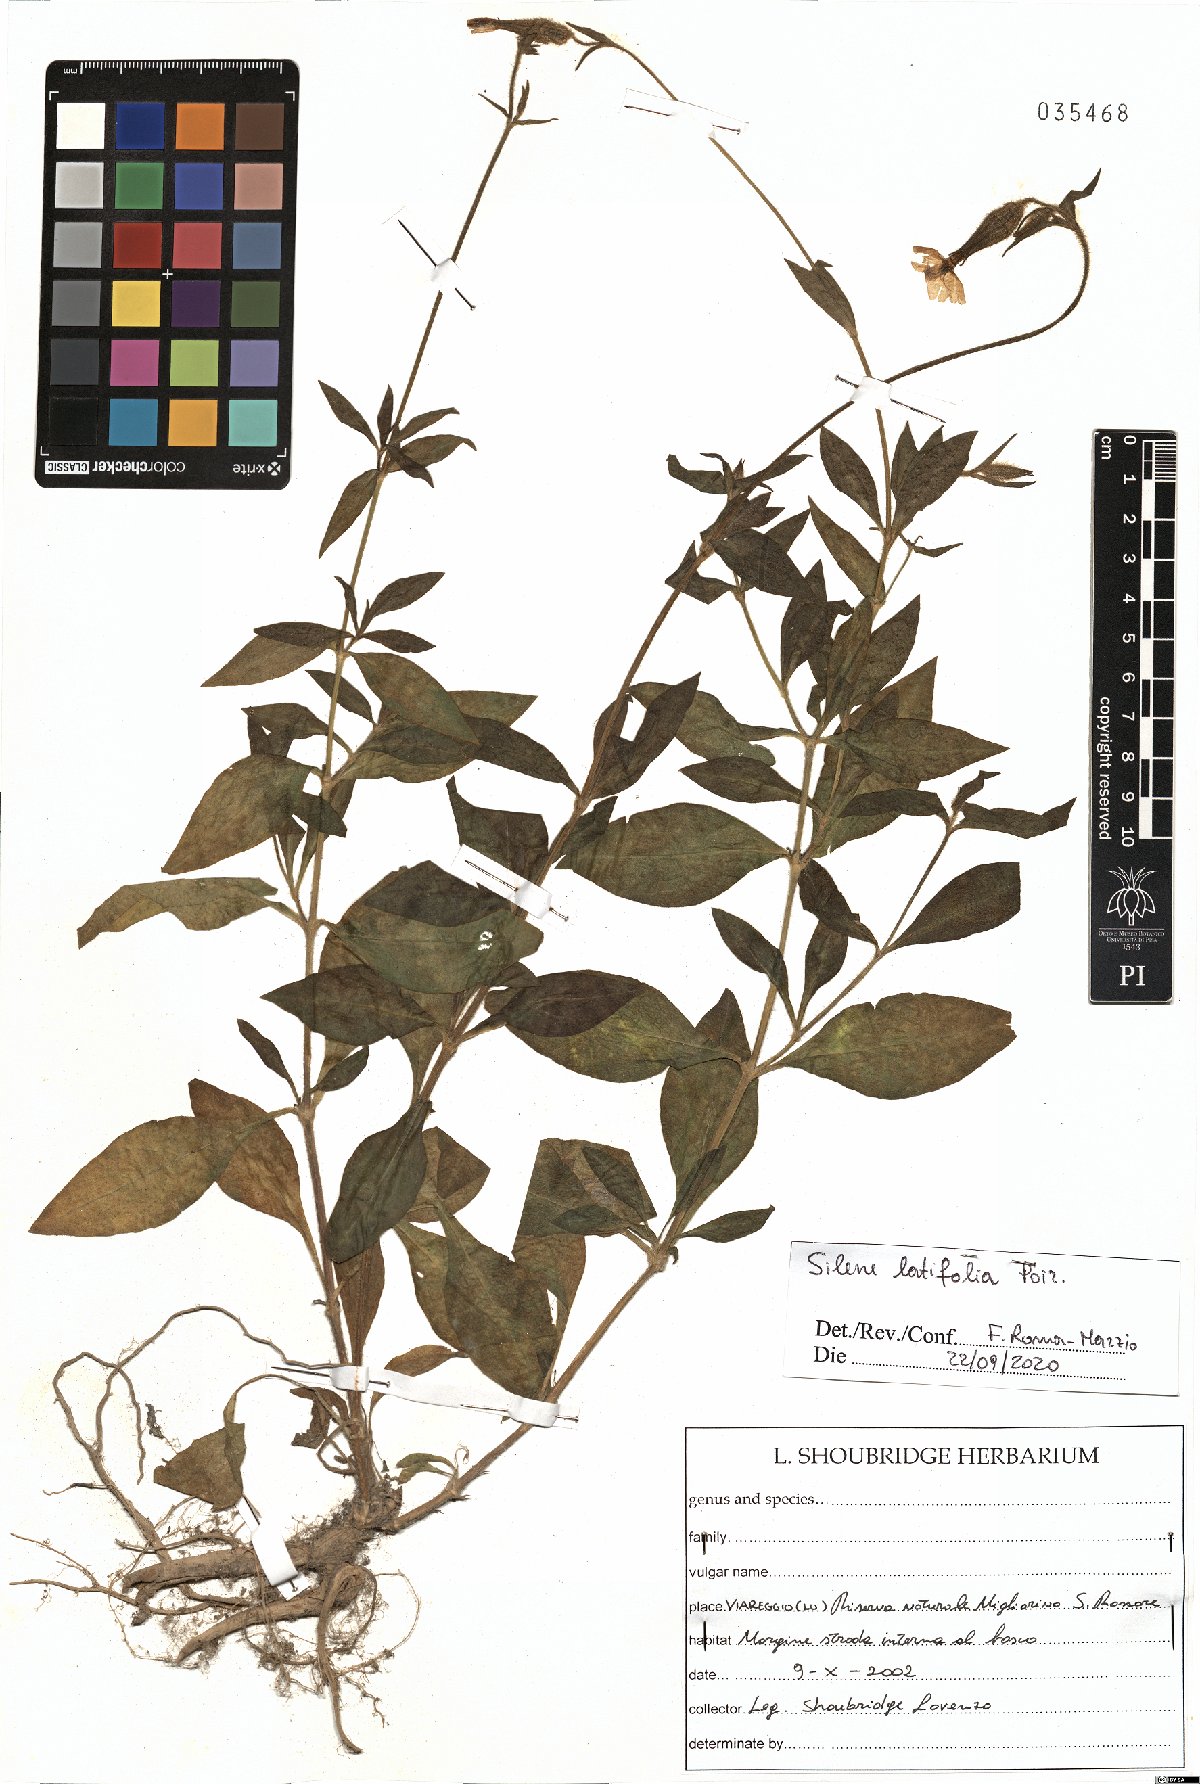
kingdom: Plantae
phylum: Tracheophyta
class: Magnoliopsida
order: Caryophyllales
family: Caryophyllaceae
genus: Silene
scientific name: Silene latifolia
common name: White campion
